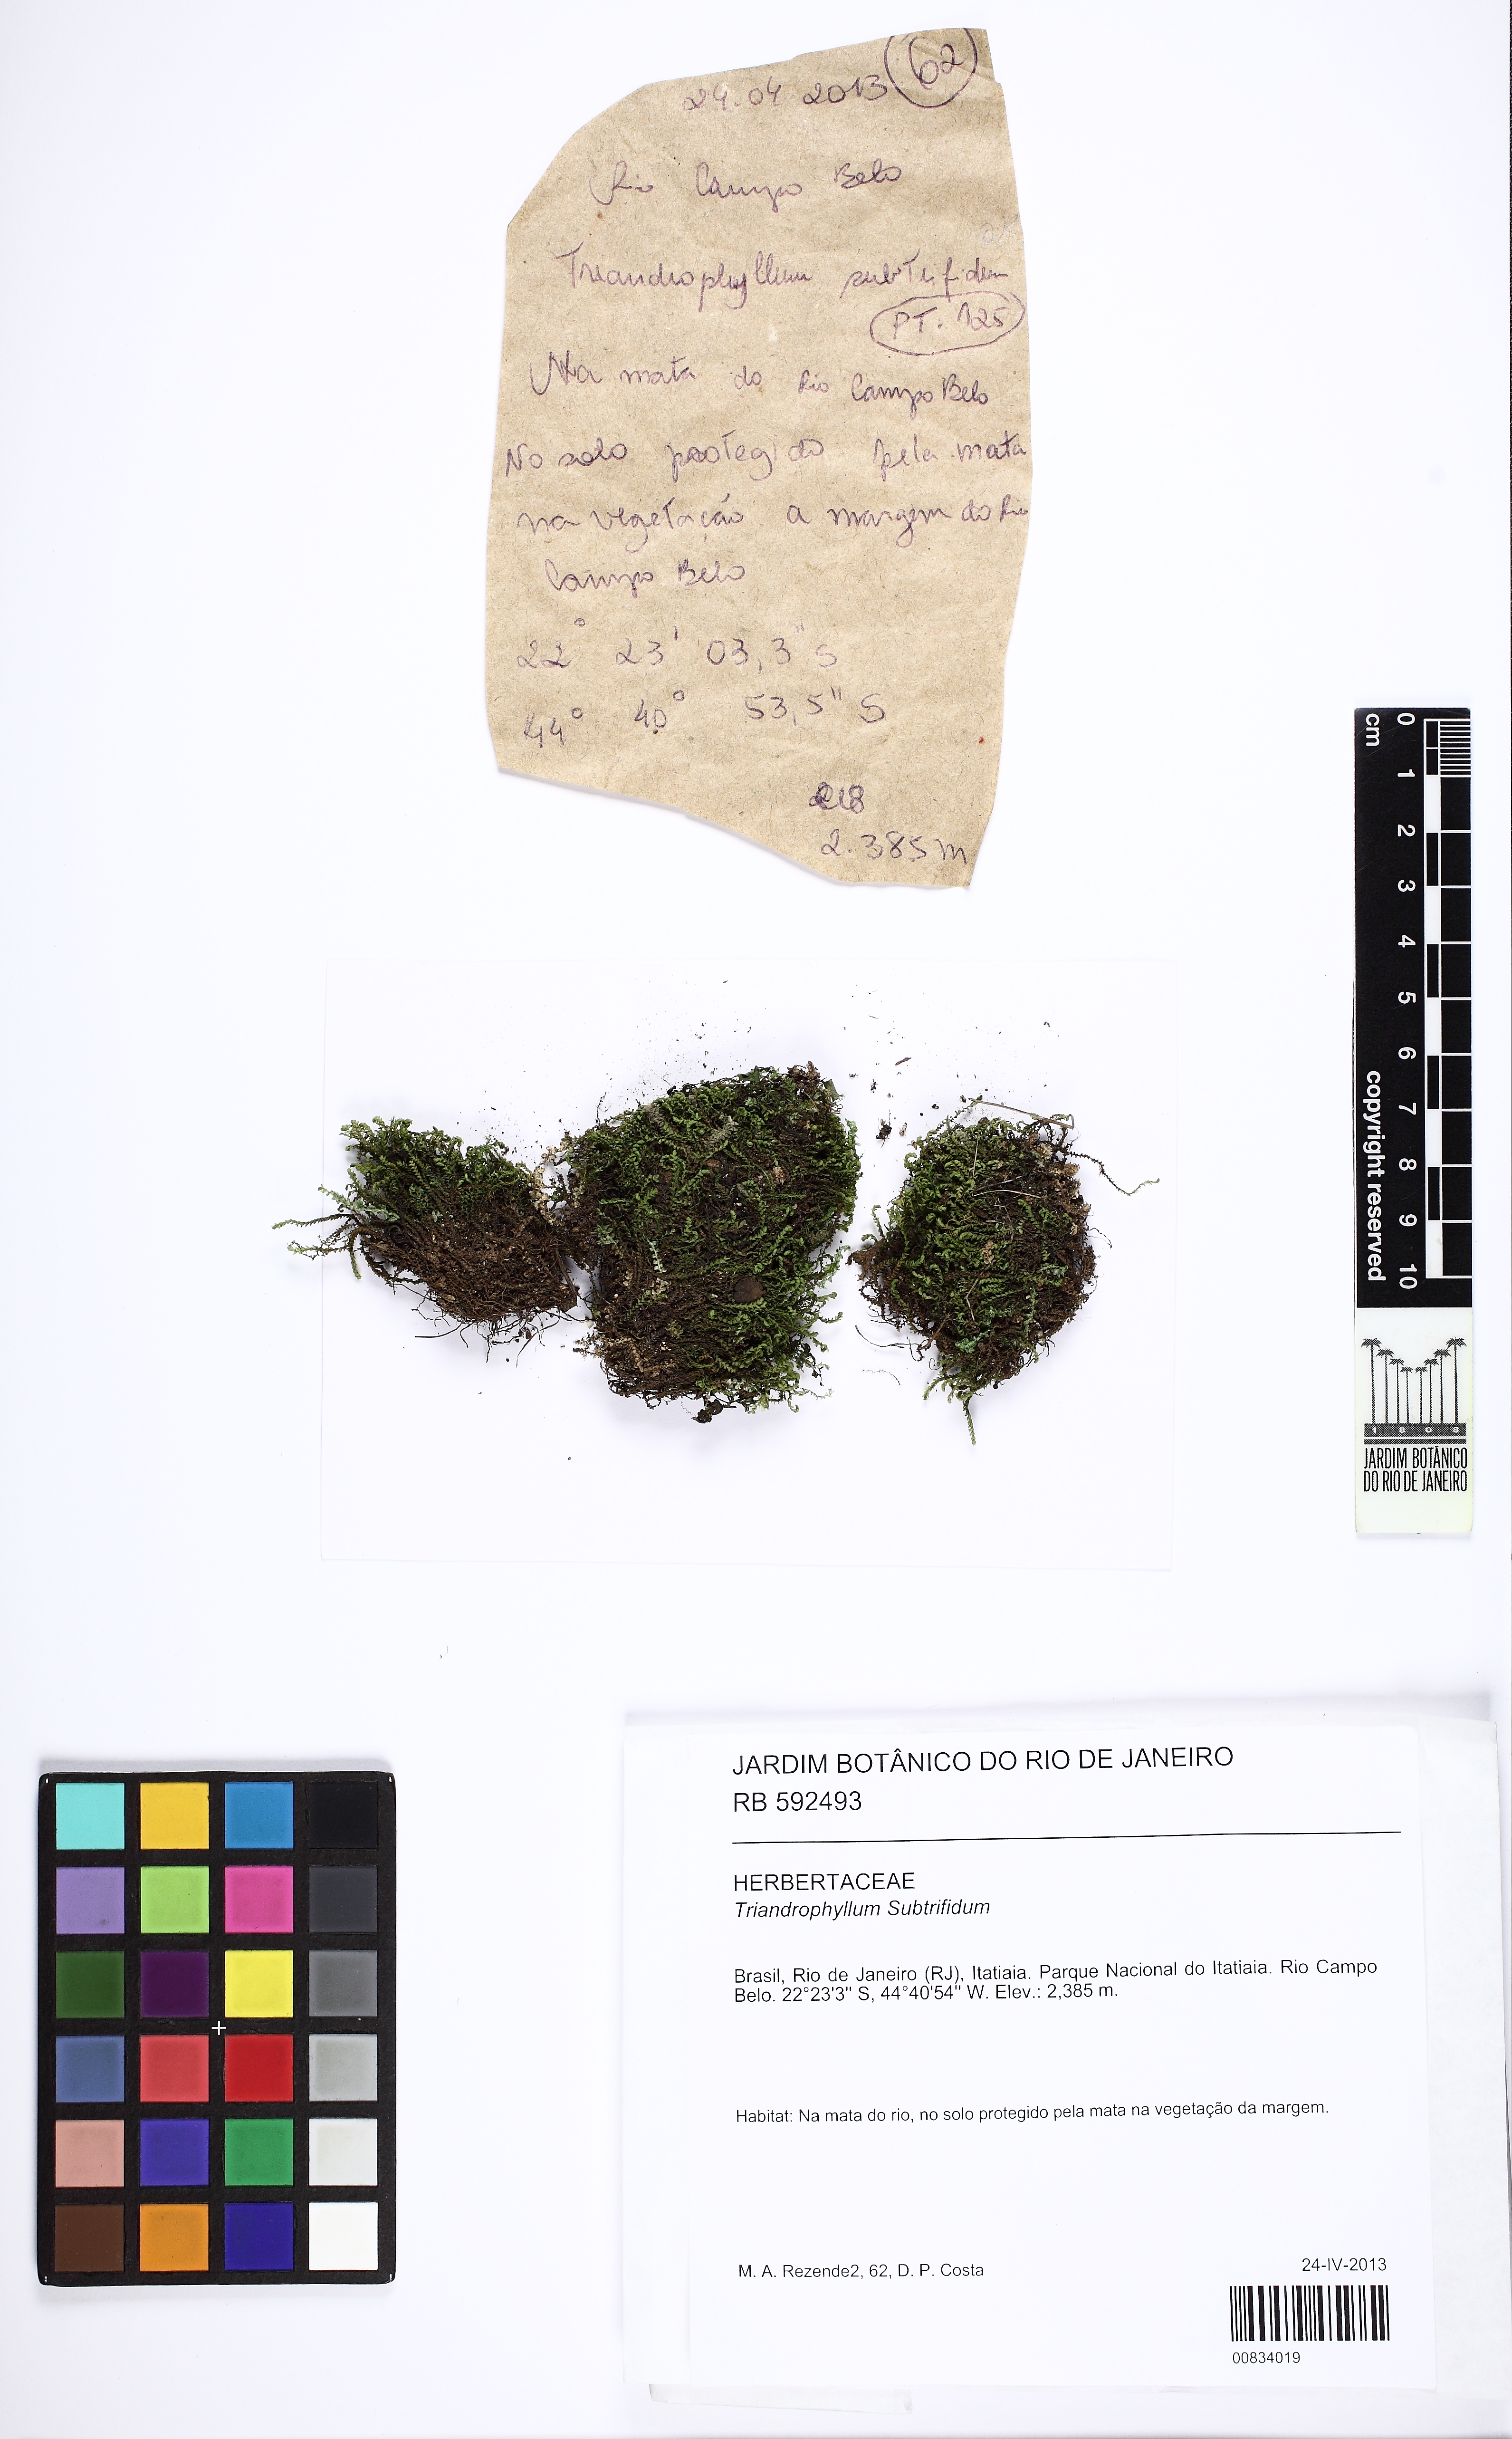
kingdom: Plantae
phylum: Marchantiophyta
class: Jungermanniopsida
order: Jungermanniales
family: Herbertaceae
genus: Triandrophyllum
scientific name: Triandrophyllum subtrifidum
